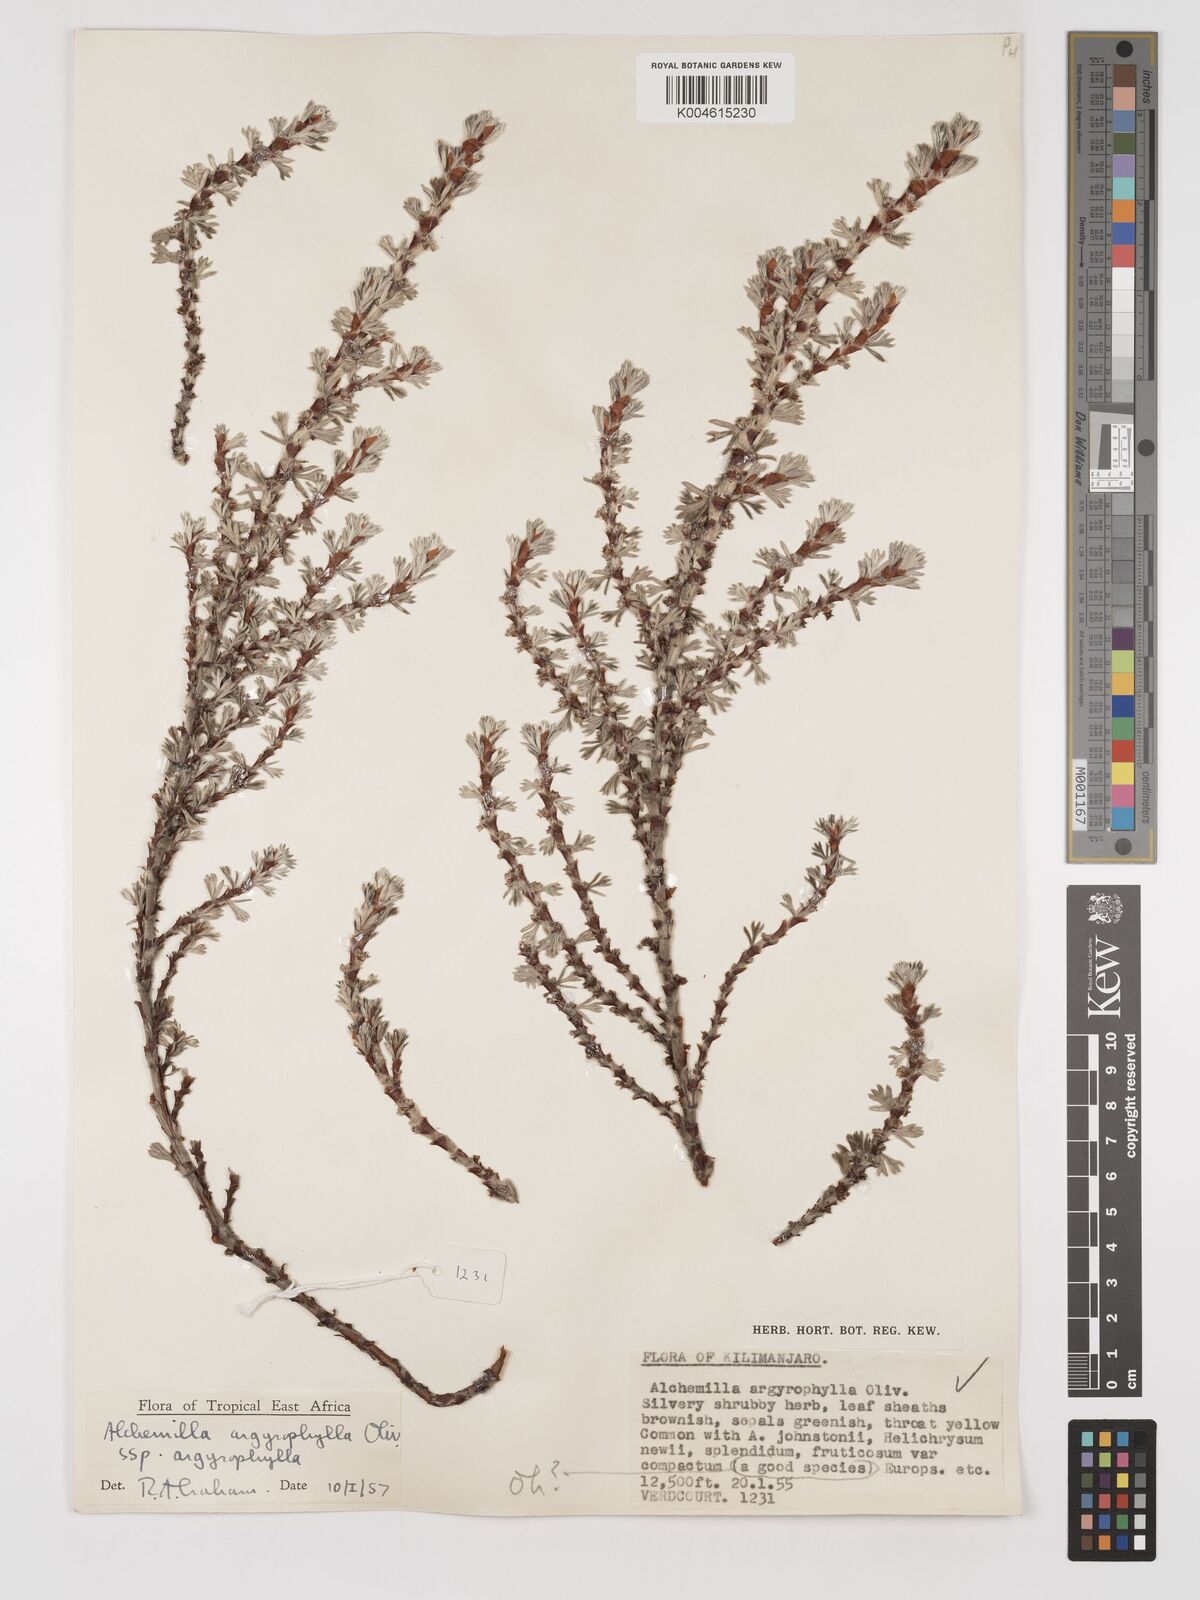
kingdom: Plantae
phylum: Tracheophyta
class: Magnoliopsida
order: Rosales
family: Rosaceae
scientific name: Rosaceae
